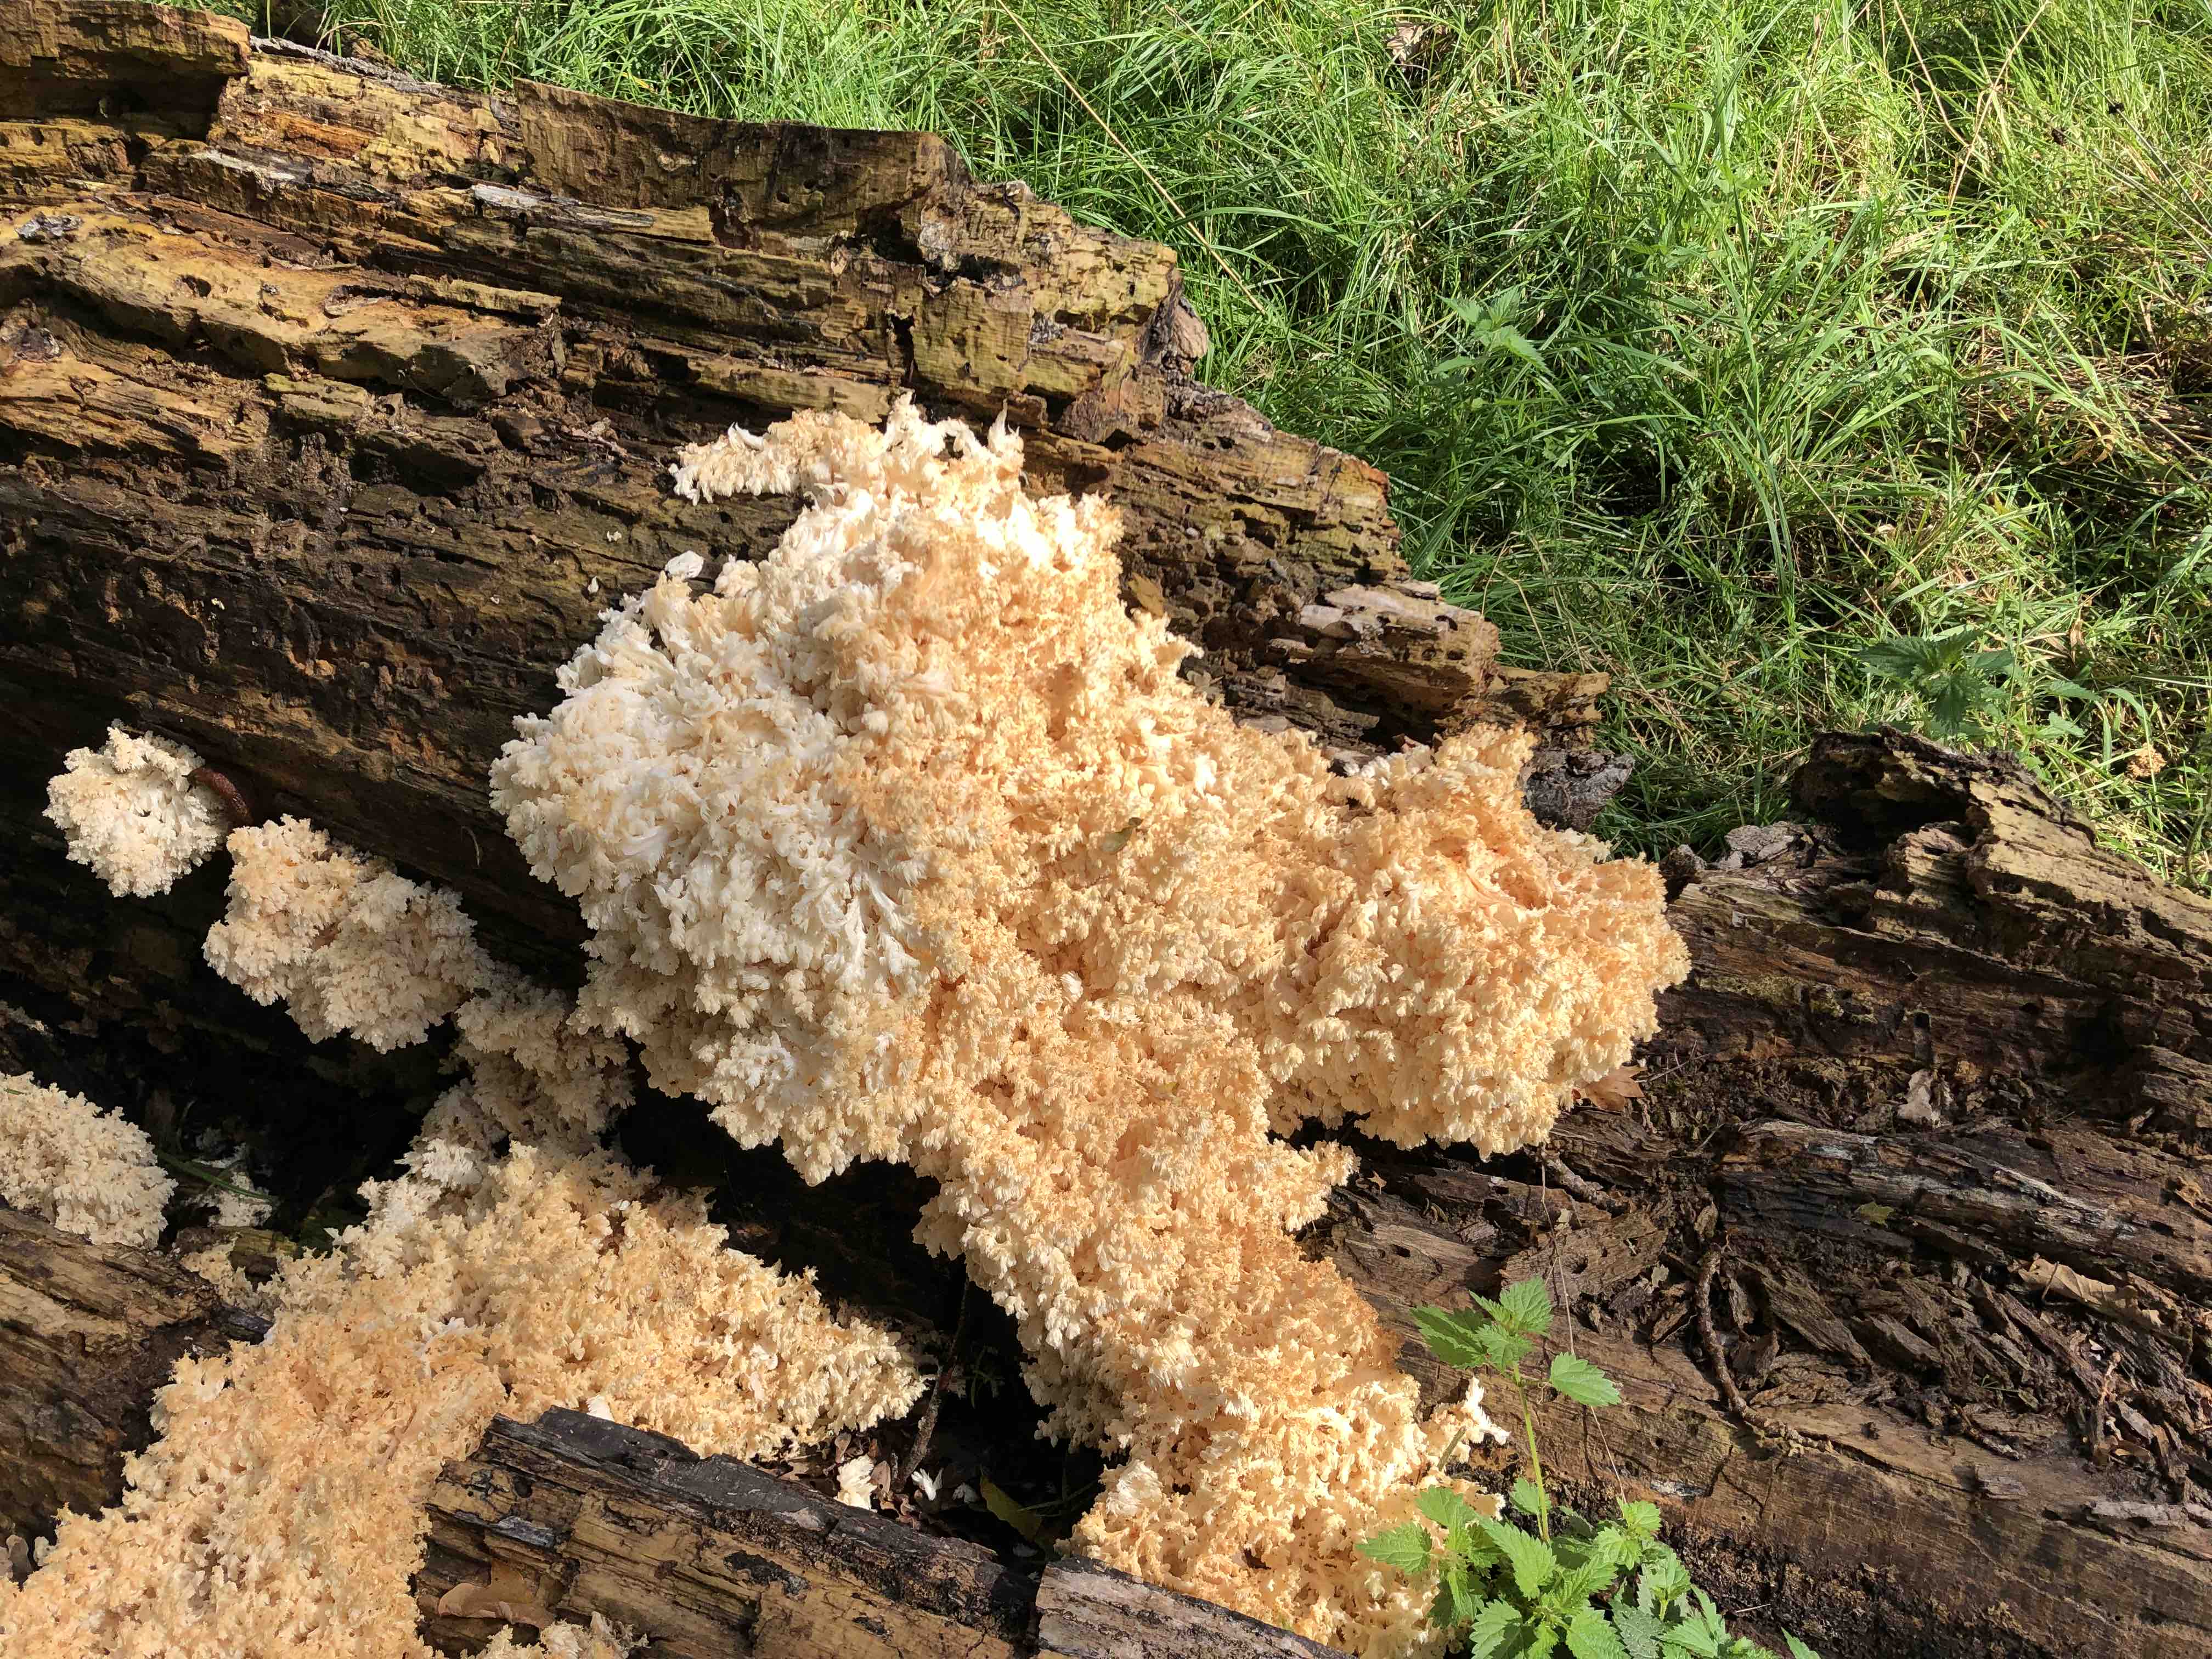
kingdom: Fungi
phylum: Basidiomycota
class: Agaricomycetes
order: Russulales
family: Hericiaceae
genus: Hericium
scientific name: Hericium coralloides
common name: koralpigsvamp
